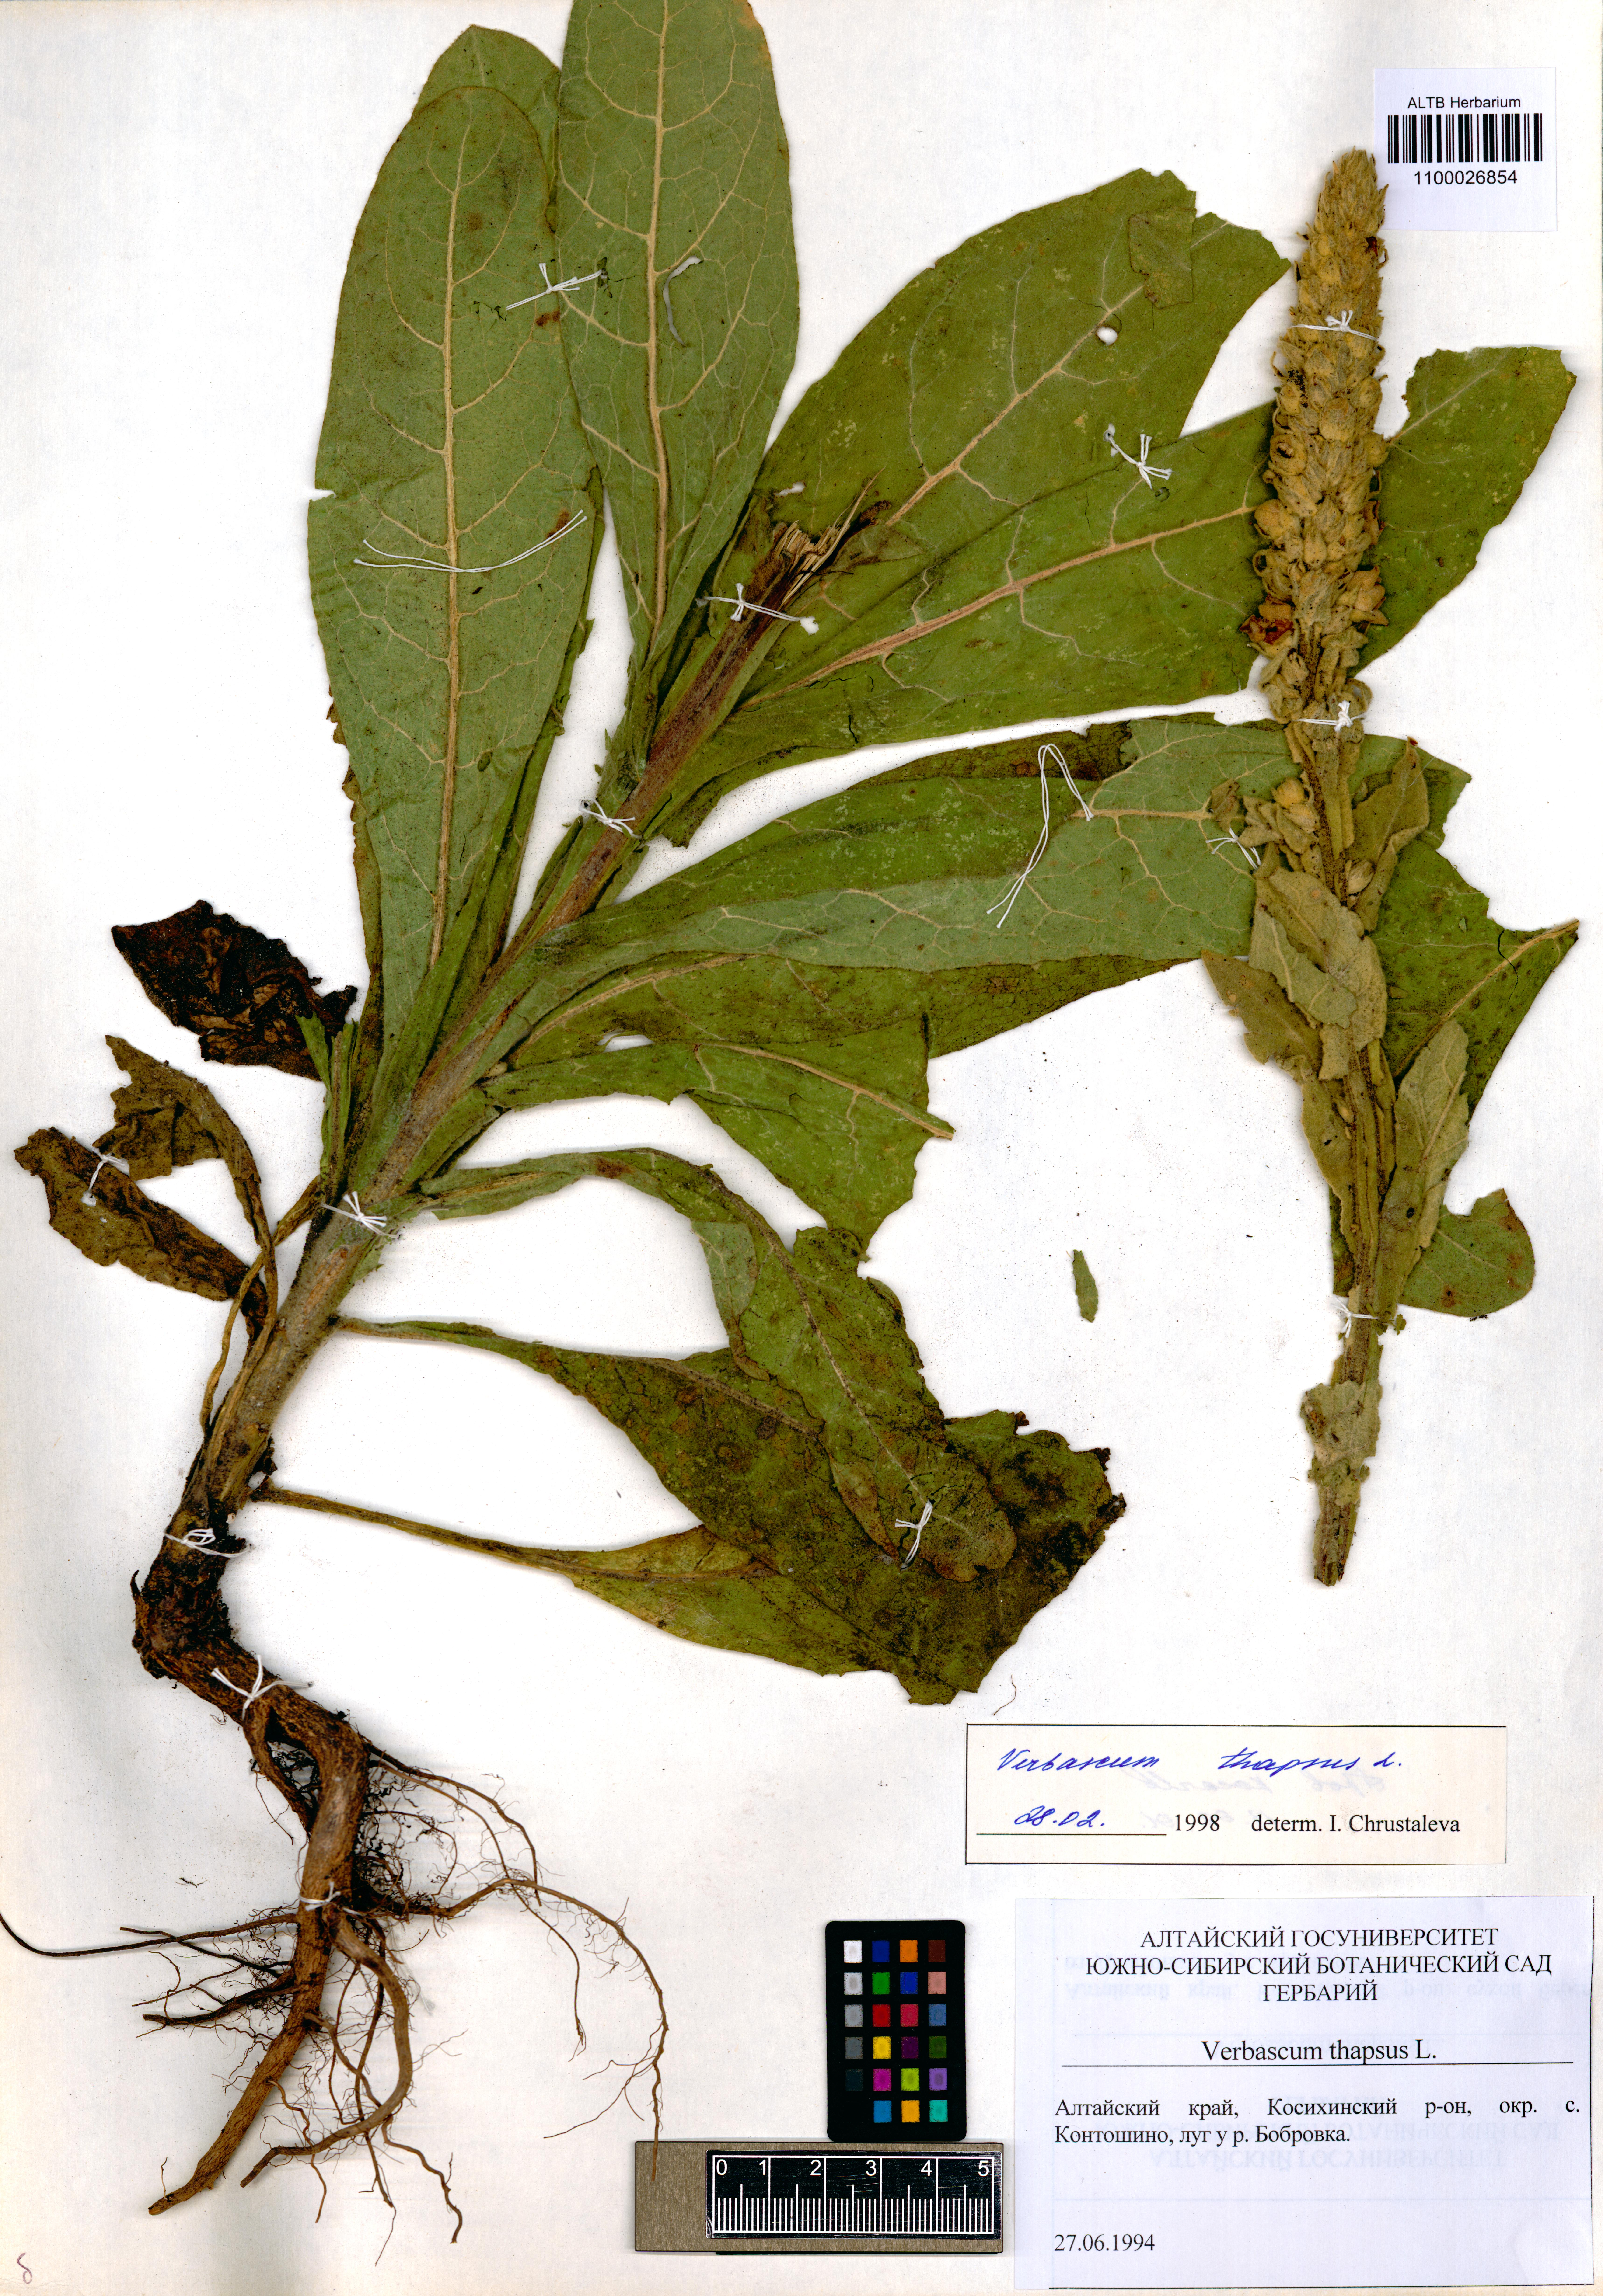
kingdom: Plantae
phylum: Tracheophyta
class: Magnoliopsida
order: Lamiales
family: Scrophulariaceae
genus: Verbascum
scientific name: Verbascum thapsus
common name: Common mullein
